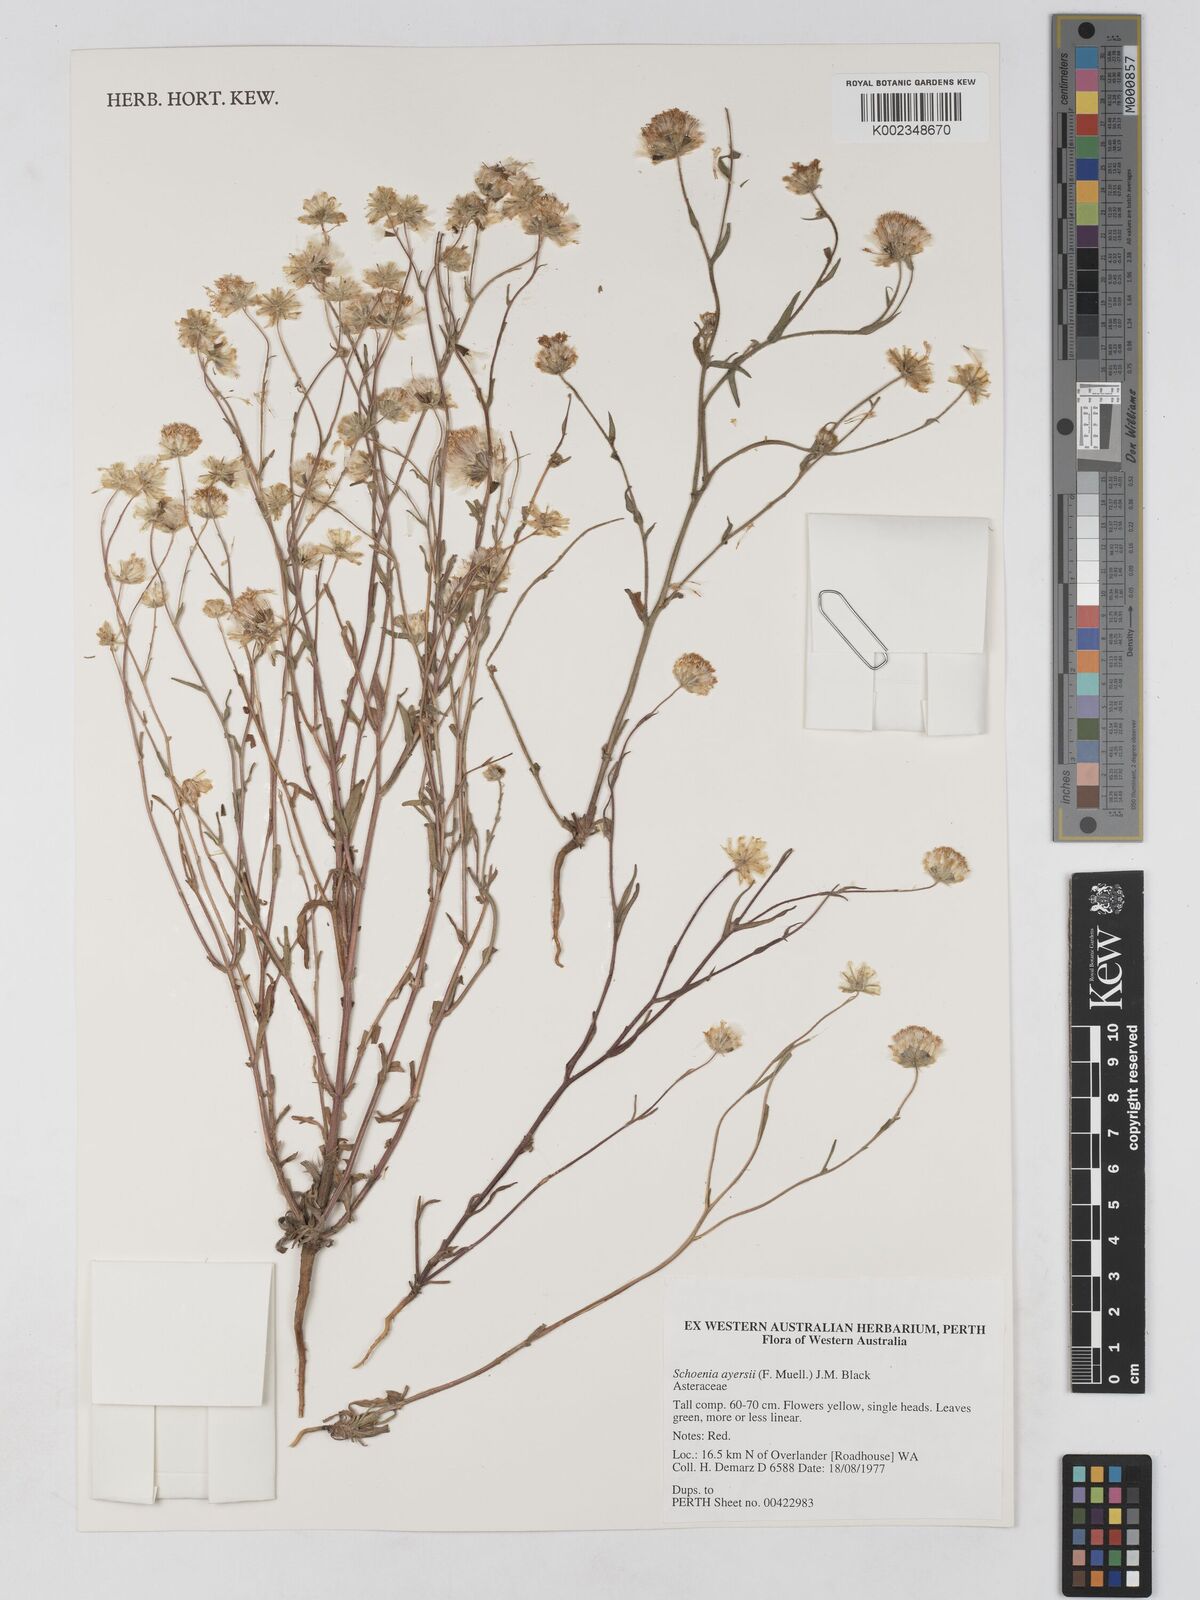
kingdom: Plantae
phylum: Tracheophyta
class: Magnoliopsida
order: Asterales
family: Asteraceae
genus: Schoenia
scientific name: Schoenia ayersii
